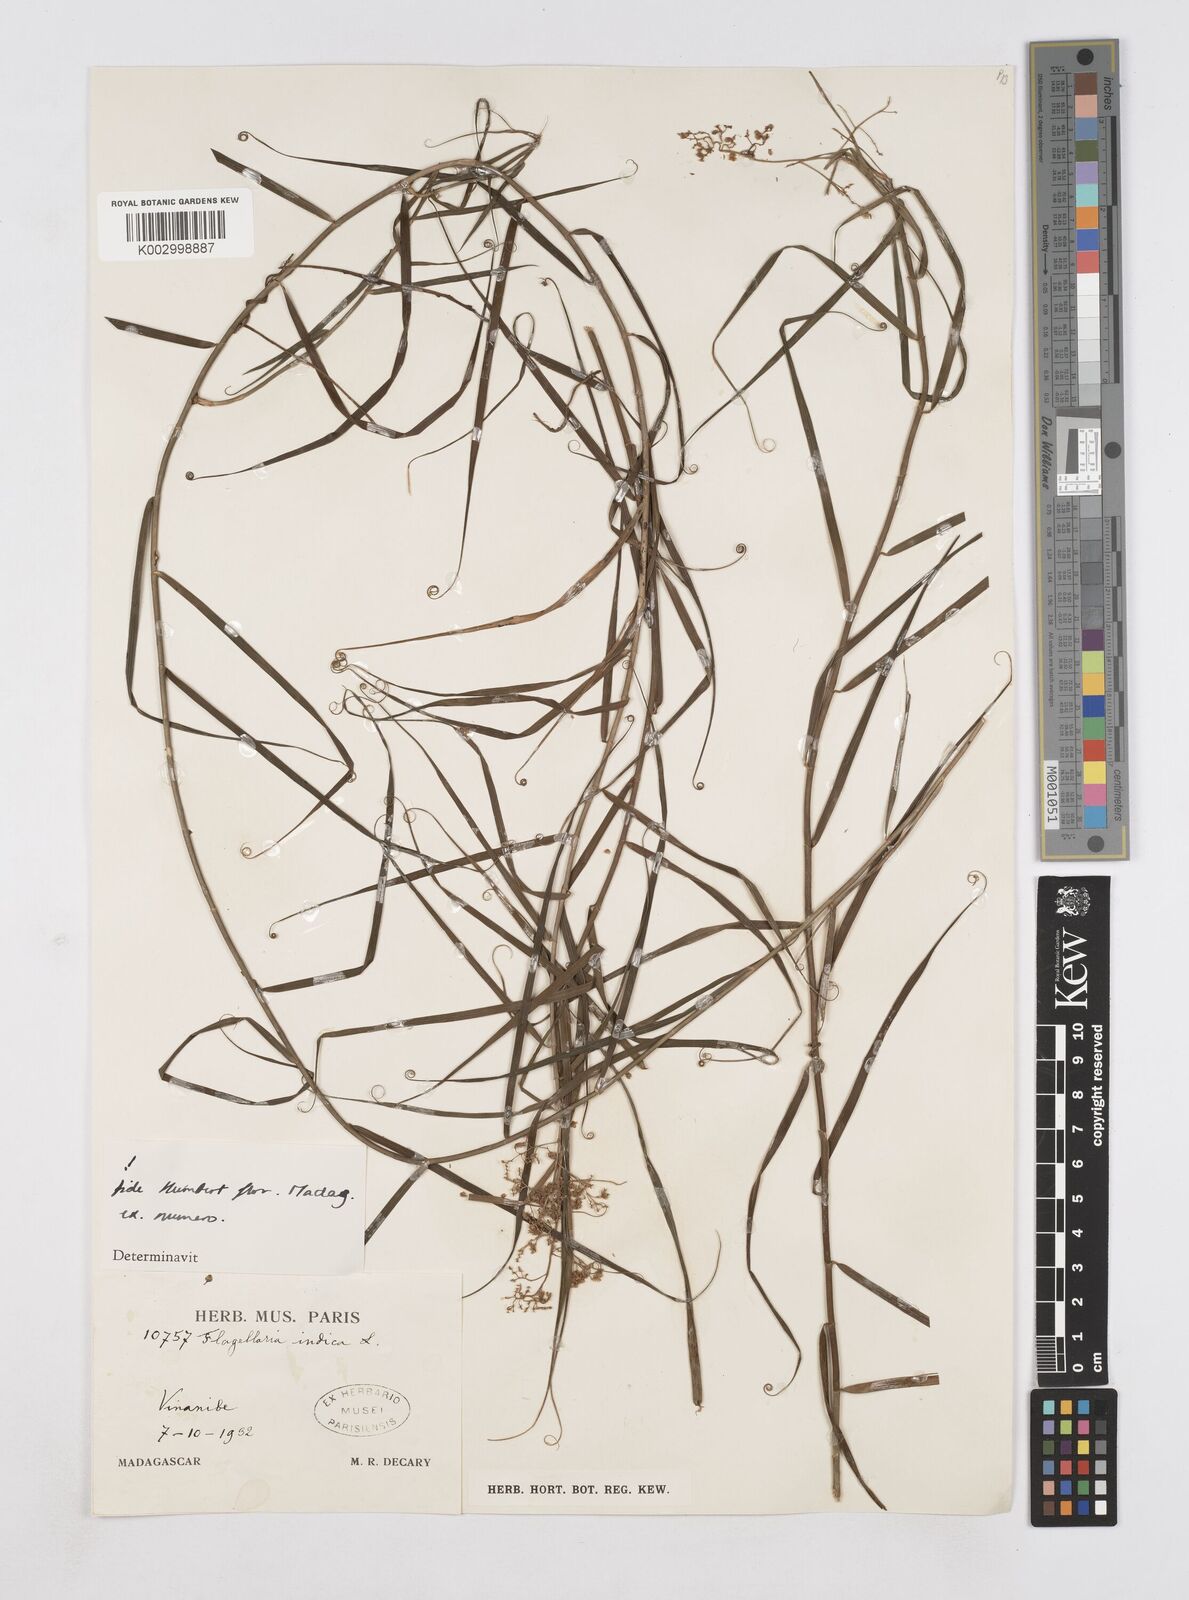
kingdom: Plantae
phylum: Tracheophyta
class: Liliopsida
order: Poales
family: Flagellariaceae
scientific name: Flagellariaceae
